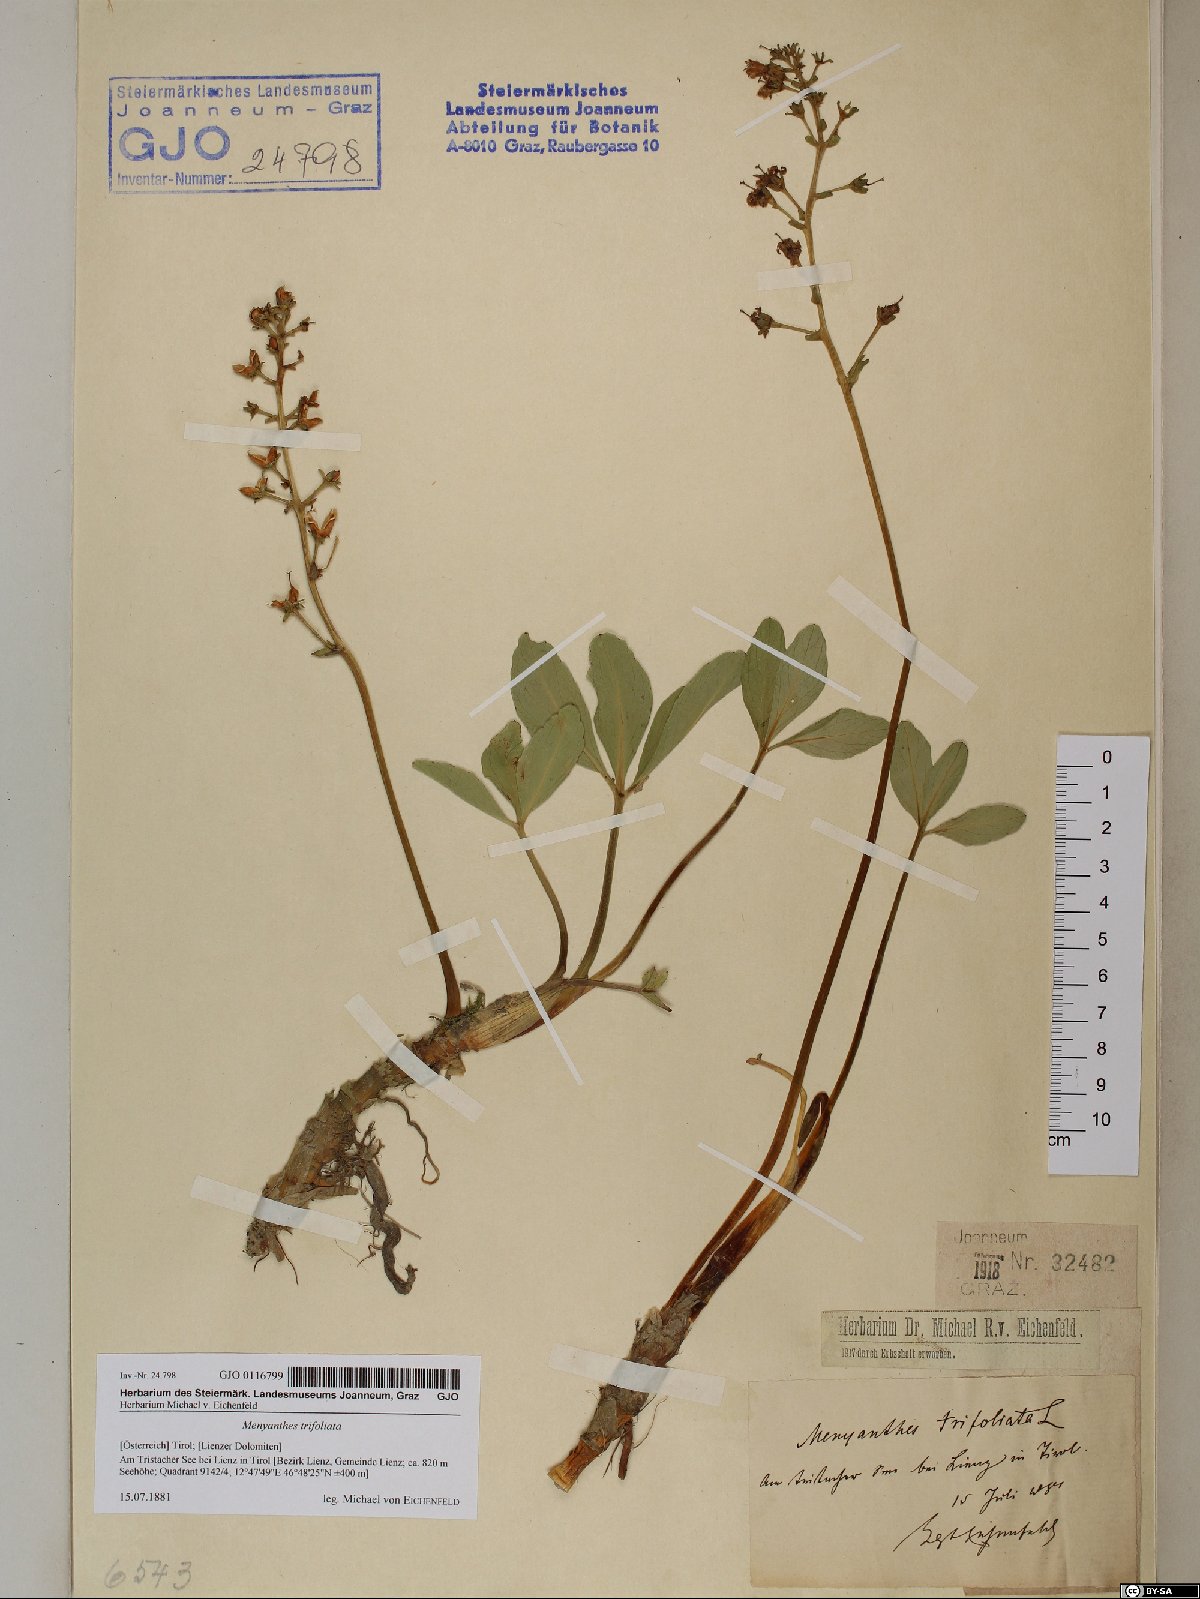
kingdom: Plantae
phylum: Tracheophyta
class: Magnoliopsida
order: Asterales
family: Menyanthaceae
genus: Menyanthes
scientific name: Menyanthes trifoliata
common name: Bogbean
